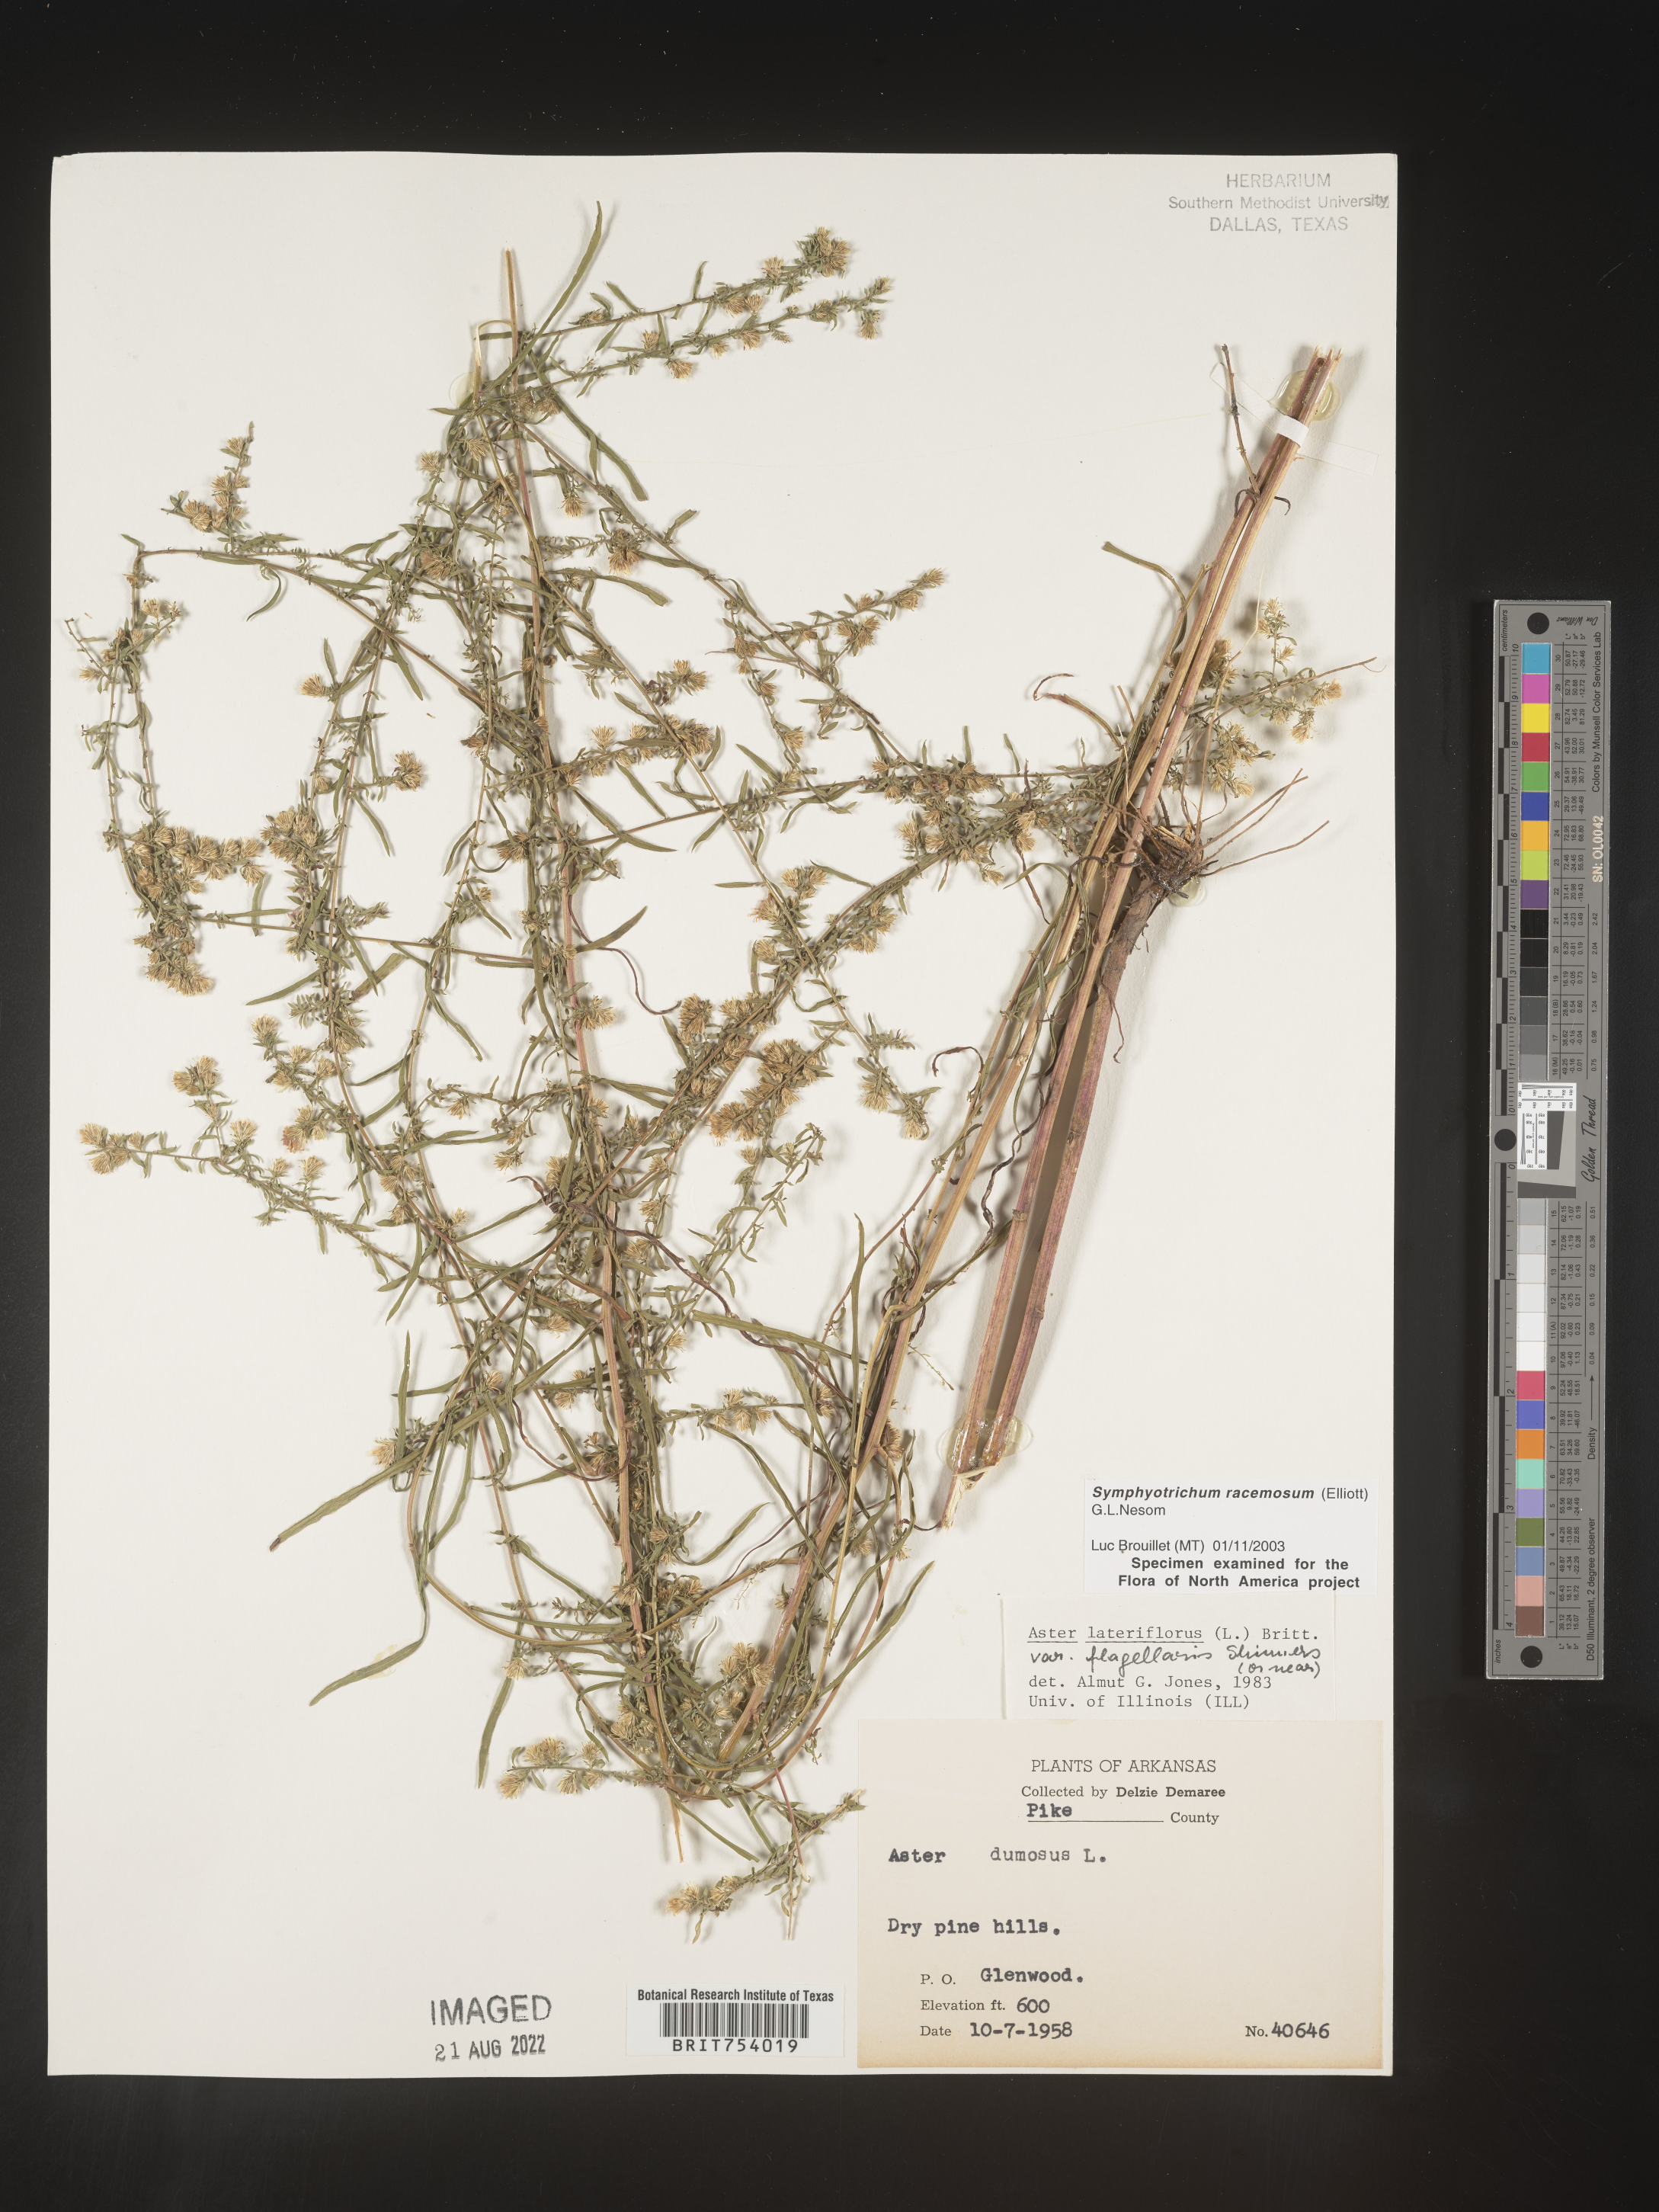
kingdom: Plantae
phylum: Tracheophyta
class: Magnoliopsida
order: Asterales
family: Asteraceae
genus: Symphyotrichum
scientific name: Symphyotrichum racemosum
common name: Small white aster
